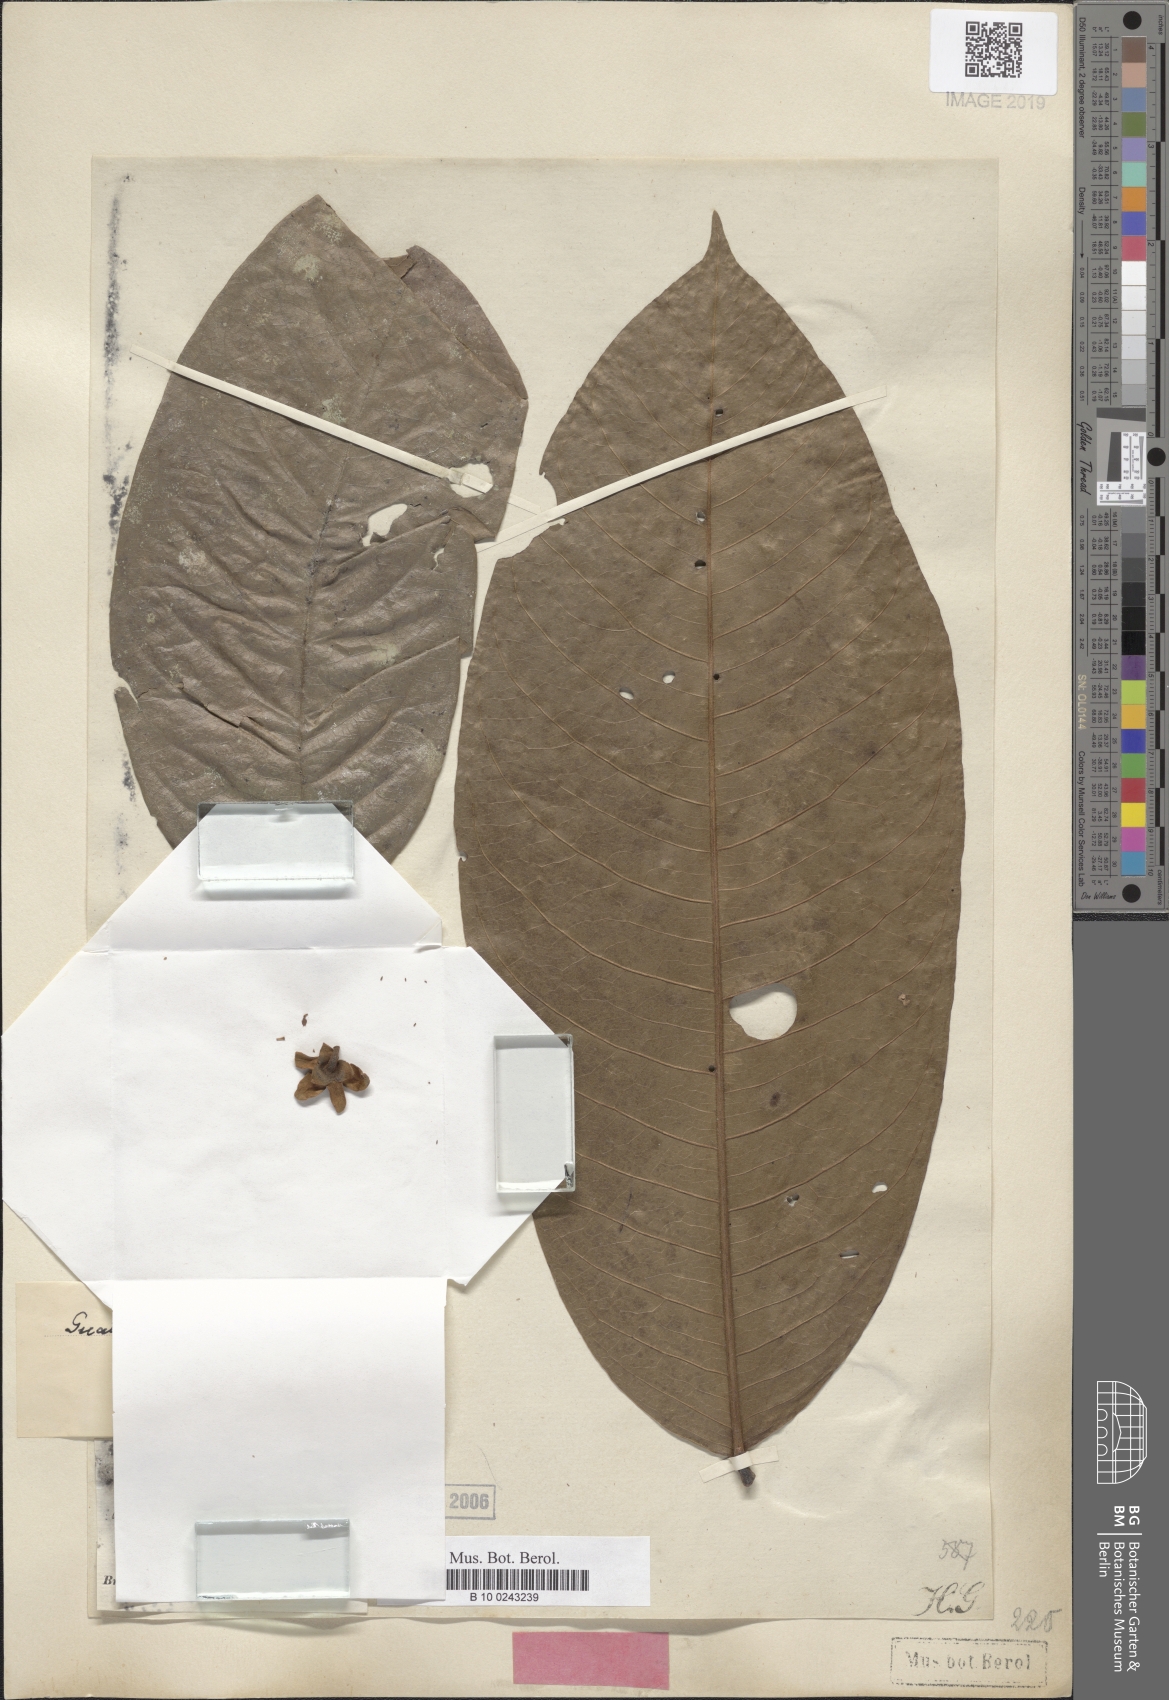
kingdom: Plantae
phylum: Tracheophyta
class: Magnoliopsida
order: Magnoliales
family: Annonaceae
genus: Guatteria
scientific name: Guatteria pogonopus
